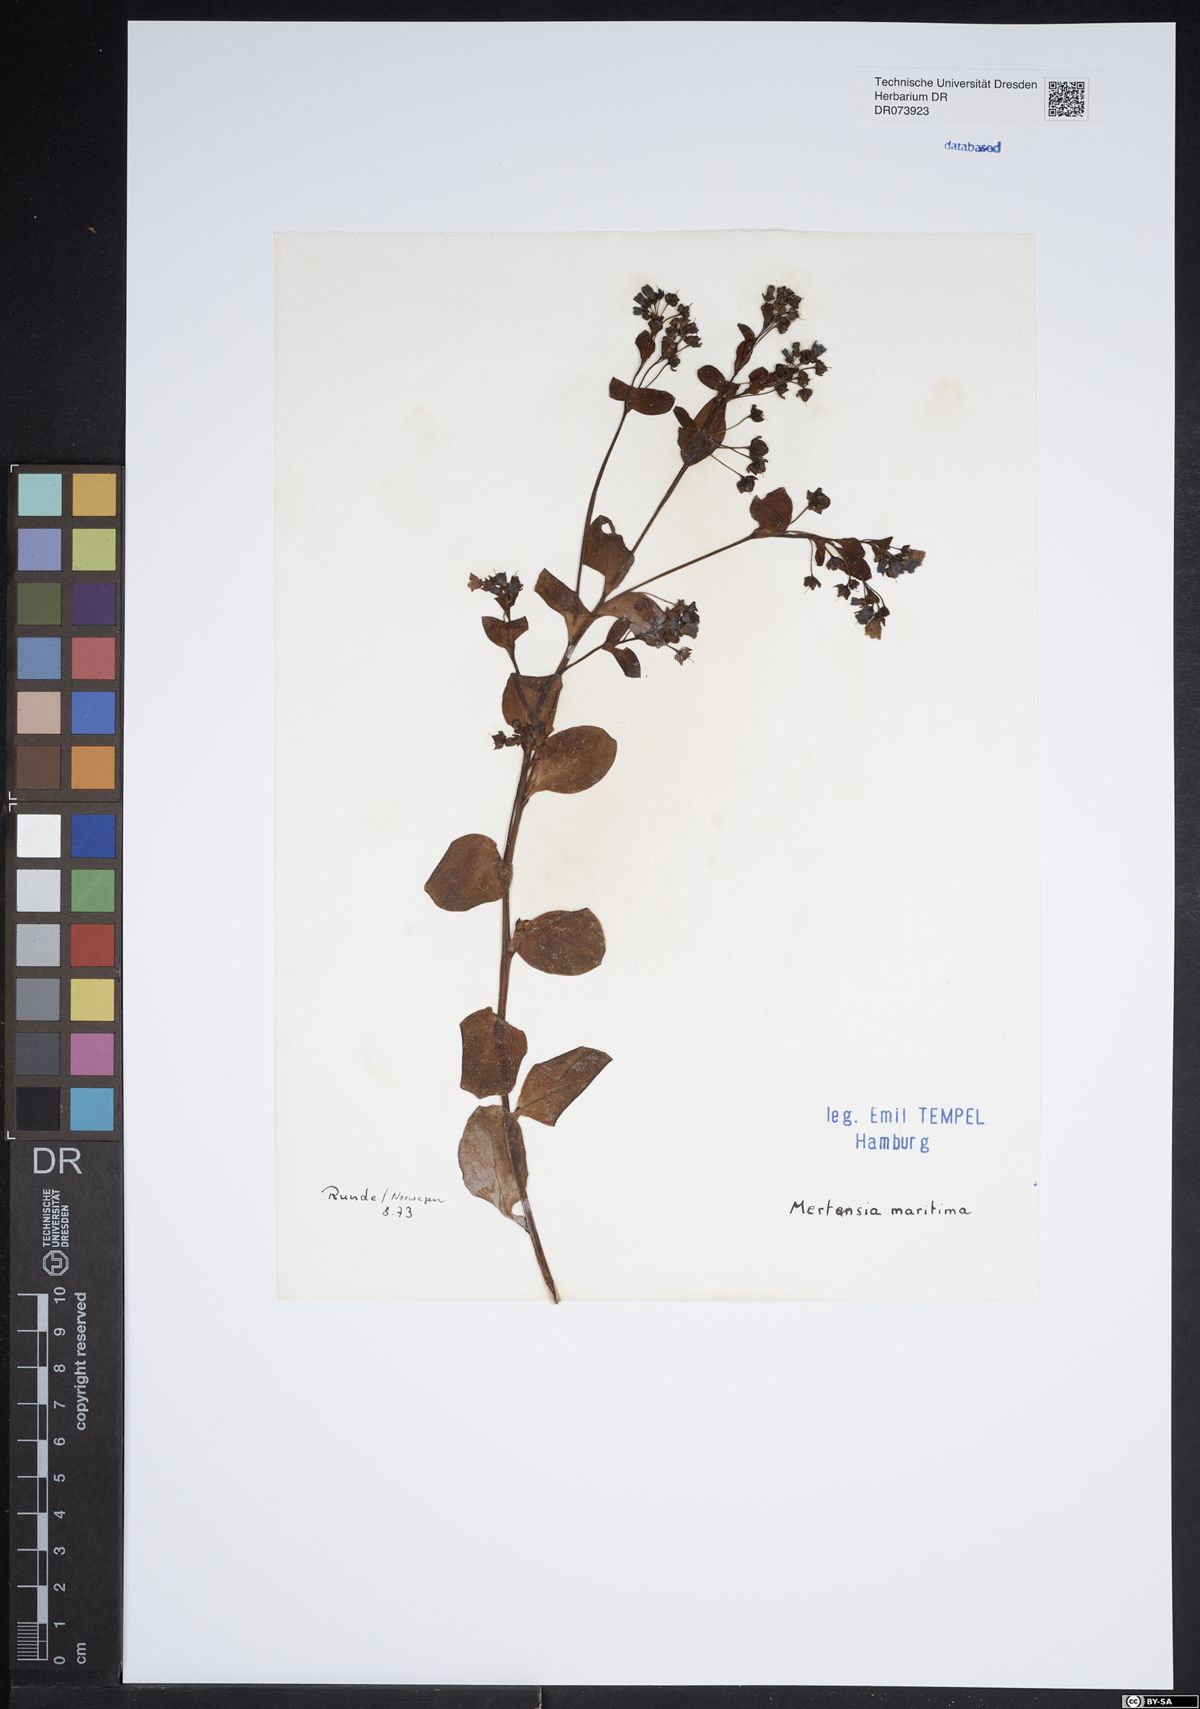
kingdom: Plantae
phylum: Tracheophyta
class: Magnoliopsida
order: Boraginales
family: Boraginaceae
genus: Mertensia
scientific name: Mertensia maritima
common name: Oysterplant
